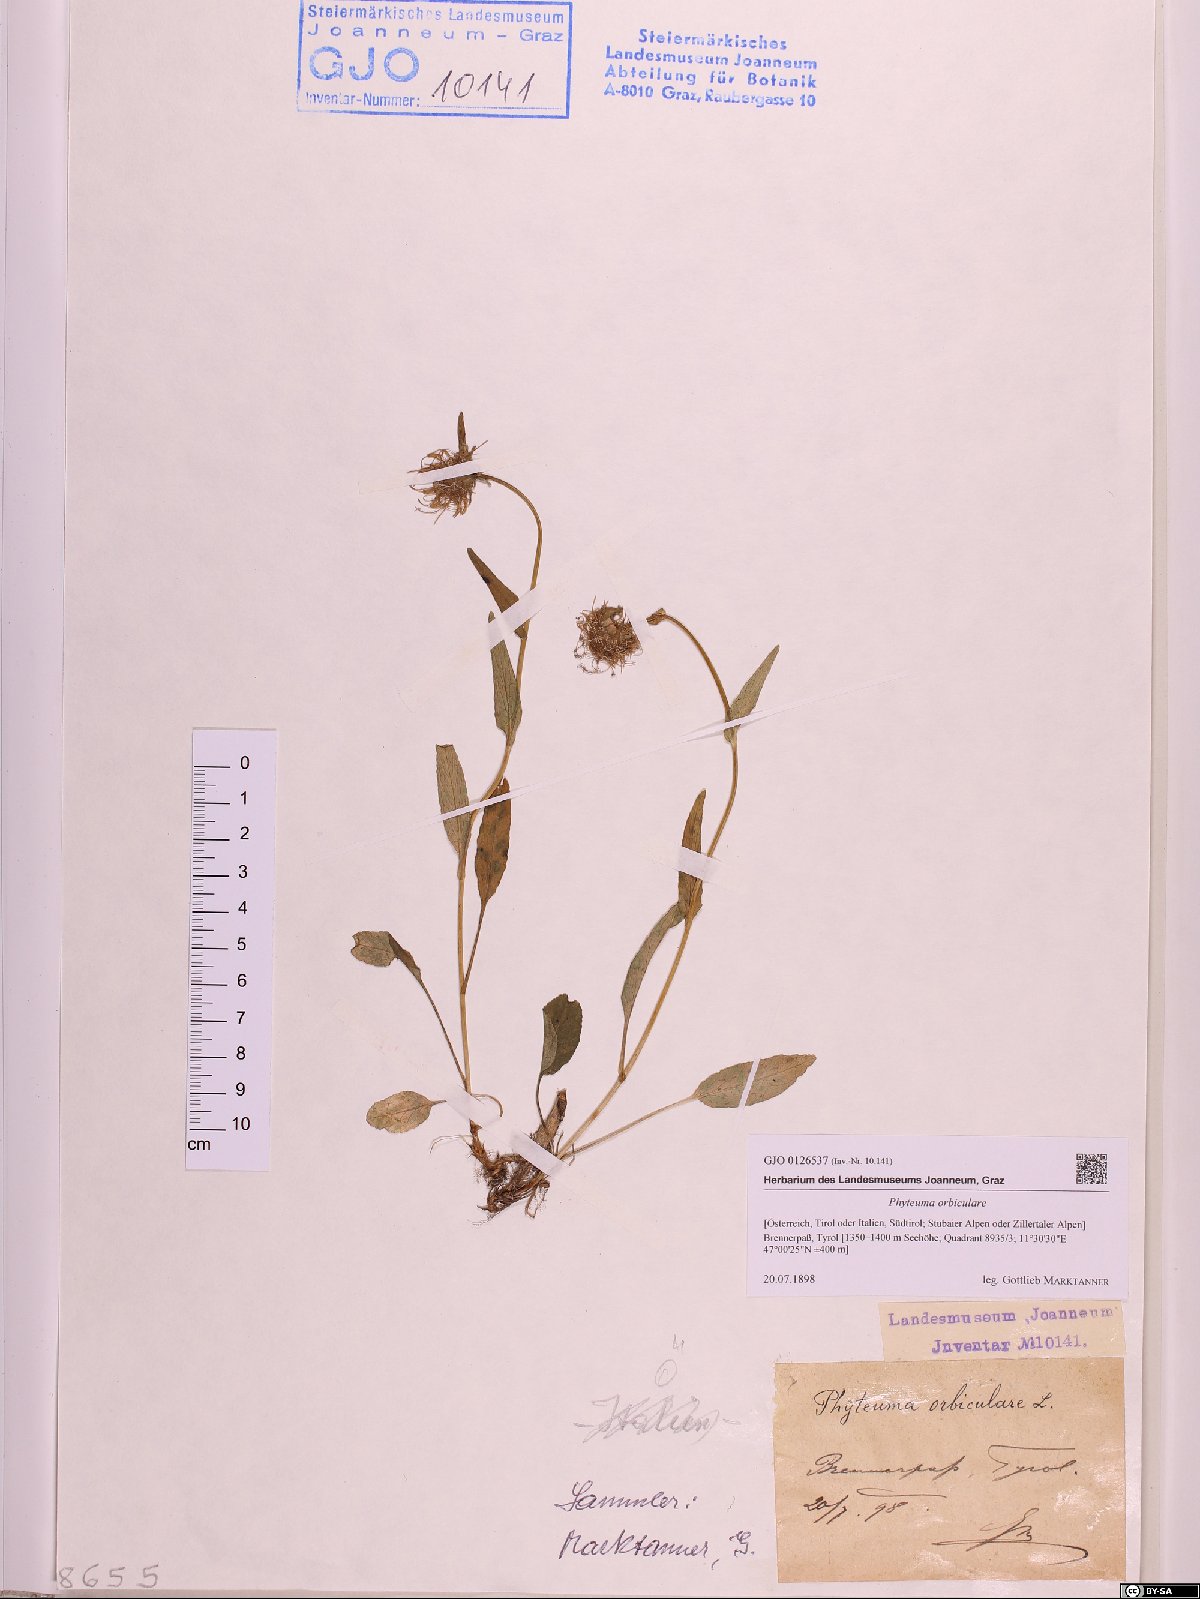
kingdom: Plantae
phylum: Tracheophyta
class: Magnoliopsida
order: Asterales
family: Campanulaceae
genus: Phyteuma
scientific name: Phyteuma orbiculare
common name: Round-headed rampion
